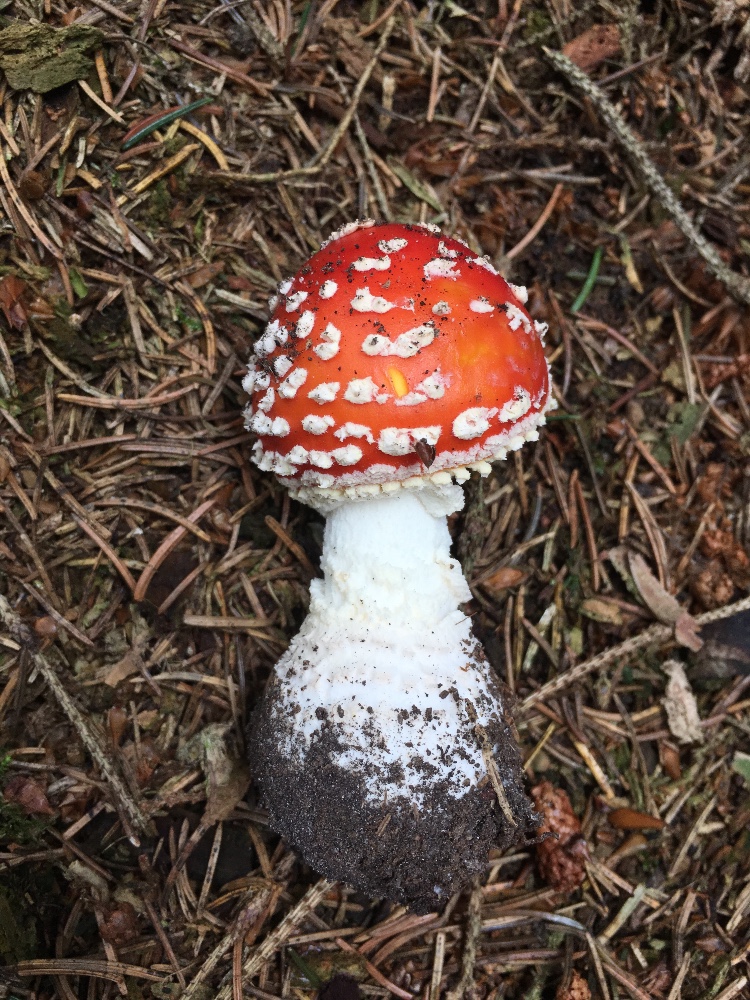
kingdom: Fungi
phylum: Basidiomycota
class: Agaricomycetes
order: Agaricales
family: Amanitaceae
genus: Amanita
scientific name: Amanita muscaria
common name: rød fluesvamp
